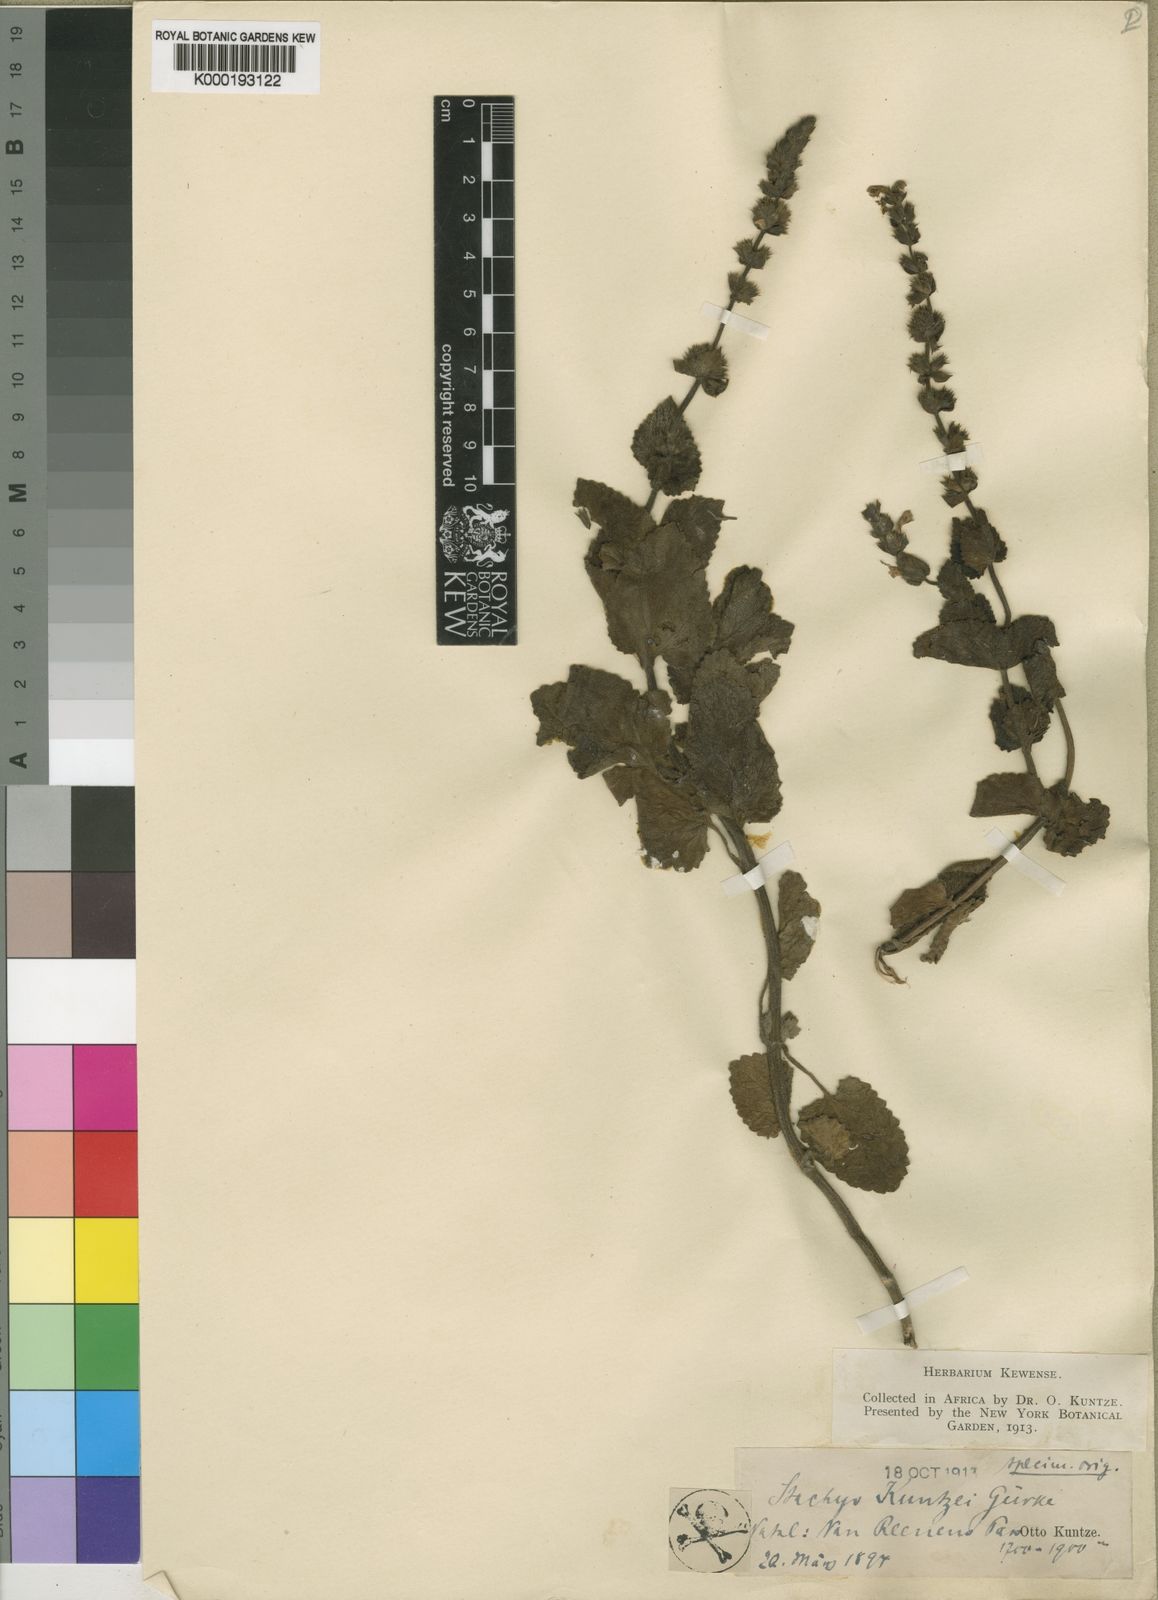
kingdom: Plantae
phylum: Tracheophyta
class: Magnoliopsida
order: Lamiales
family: Lamiaceae
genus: Stachys
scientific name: Stachys
